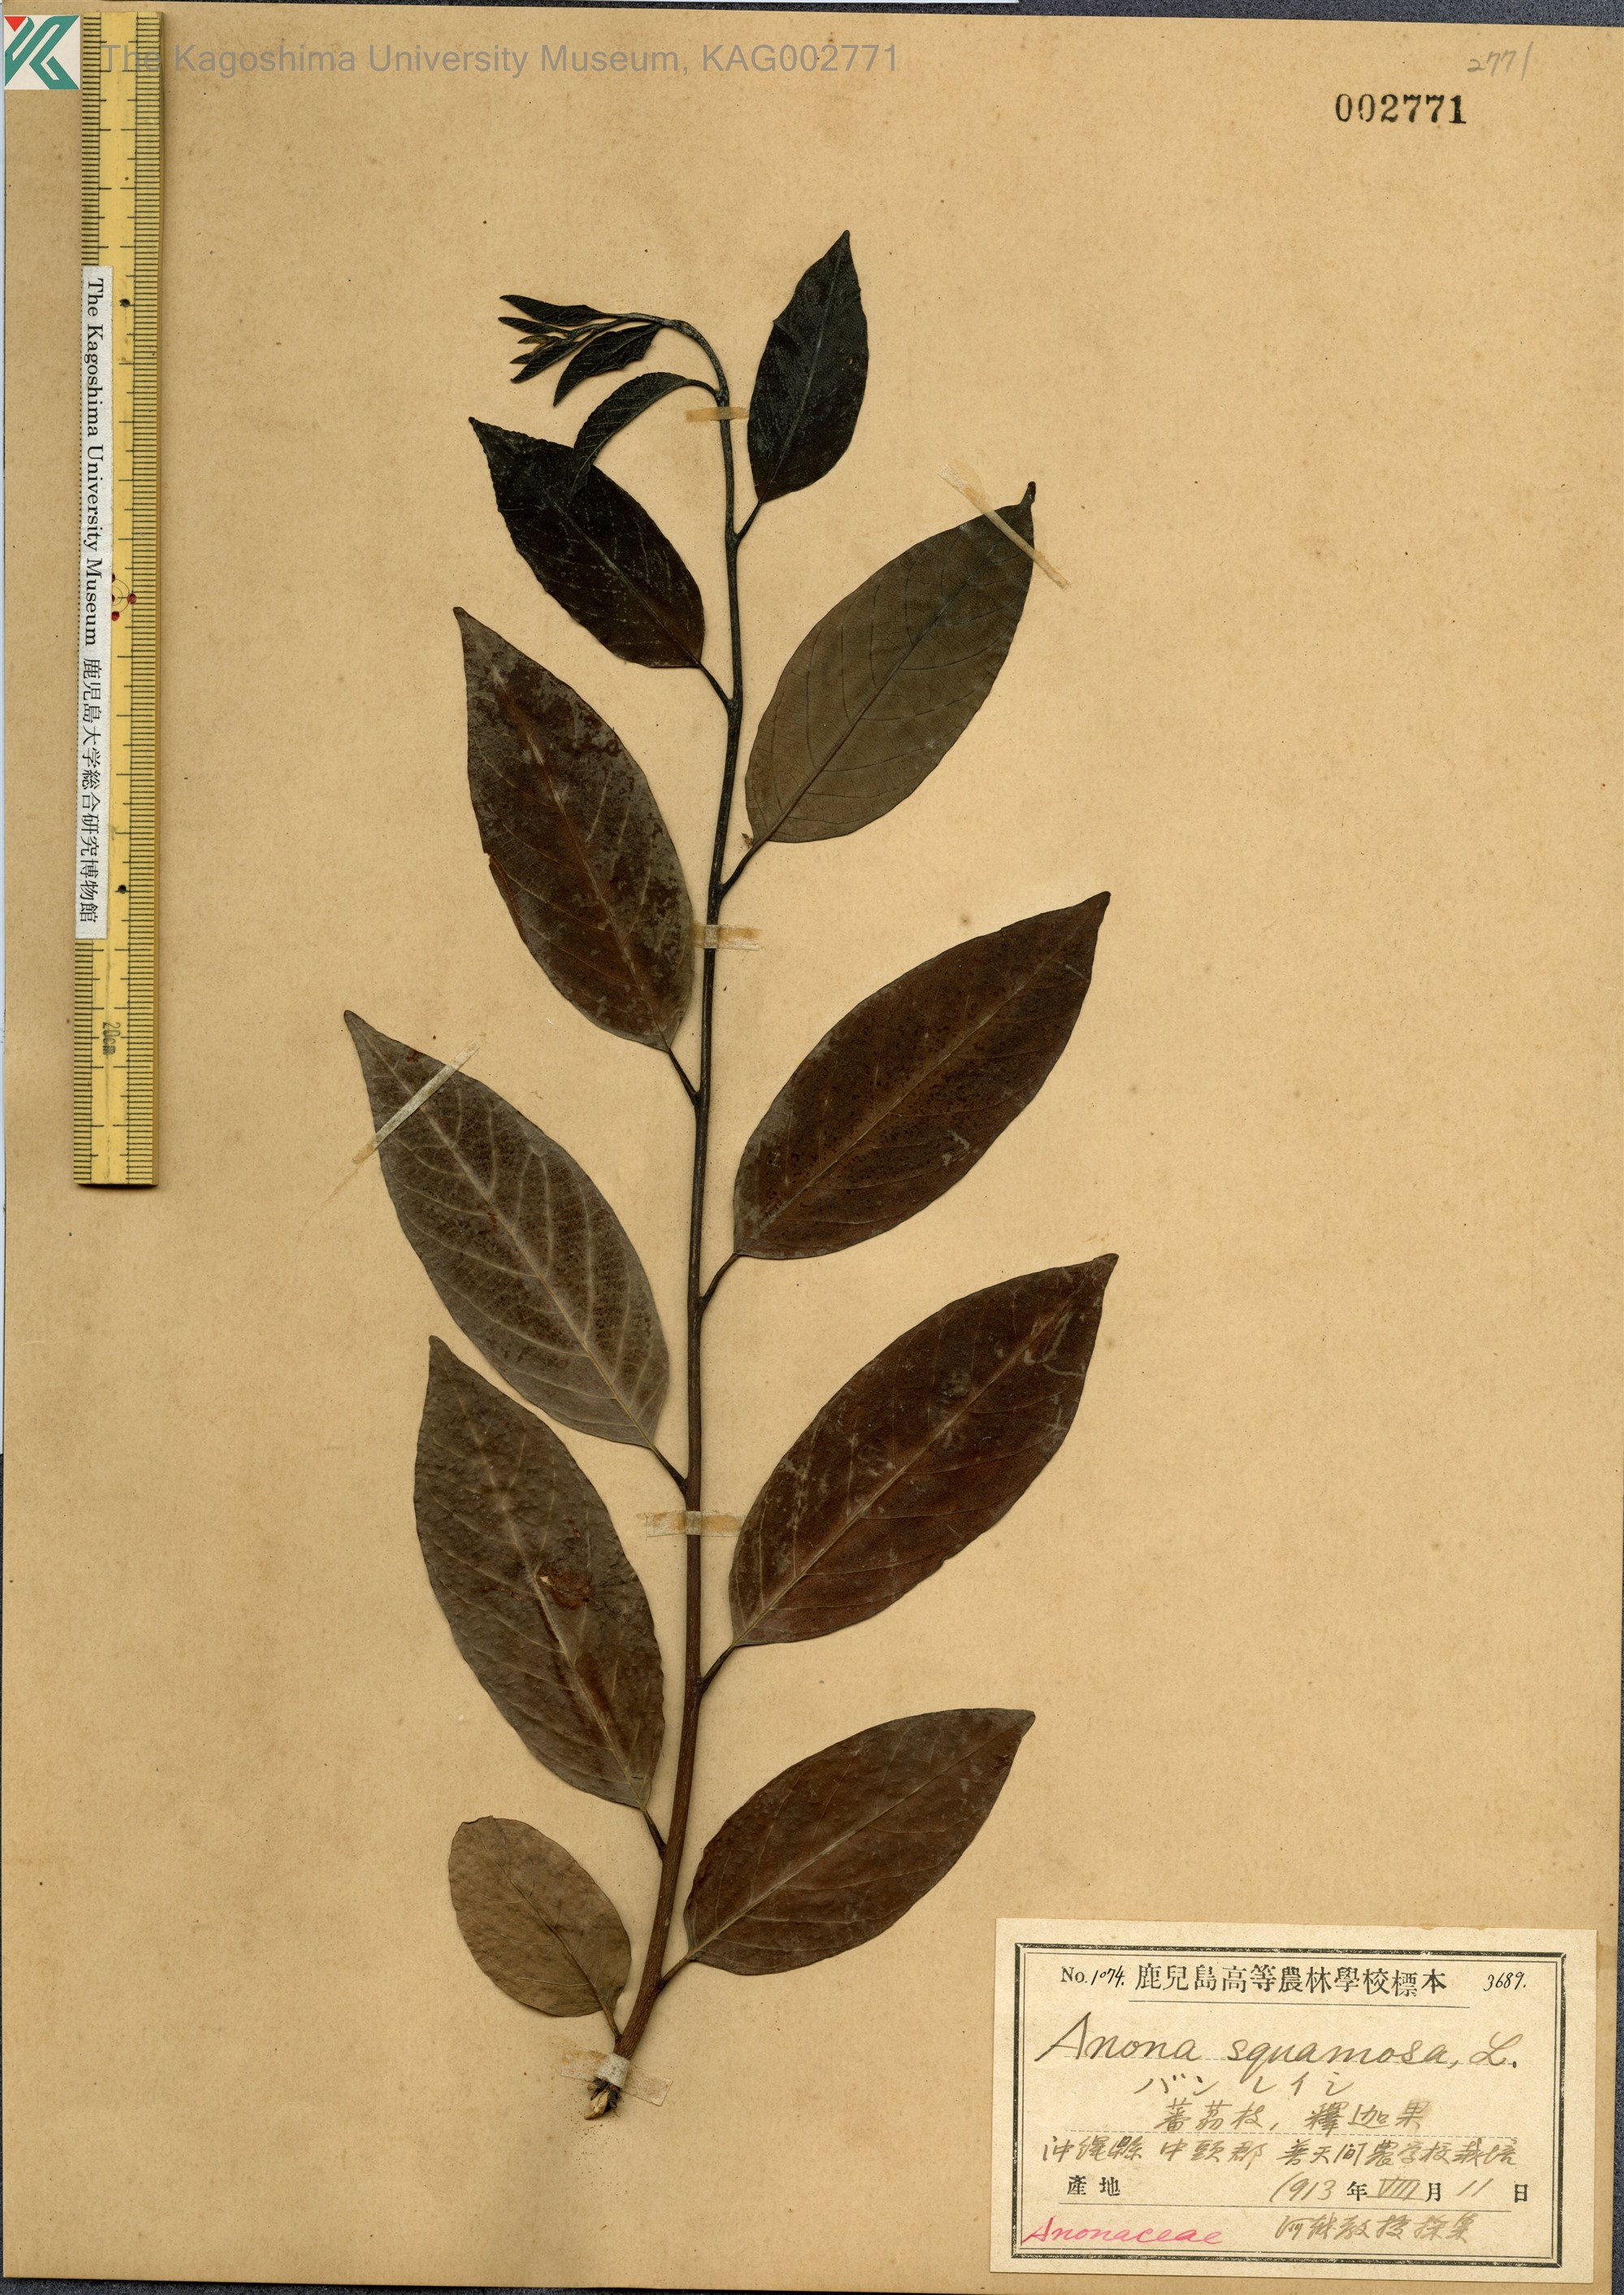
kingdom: Plantae
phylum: Tracheophyta
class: Magnoliopsida
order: Magnoliales
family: Annonaceae
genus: Annona
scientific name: Annona squamosa
